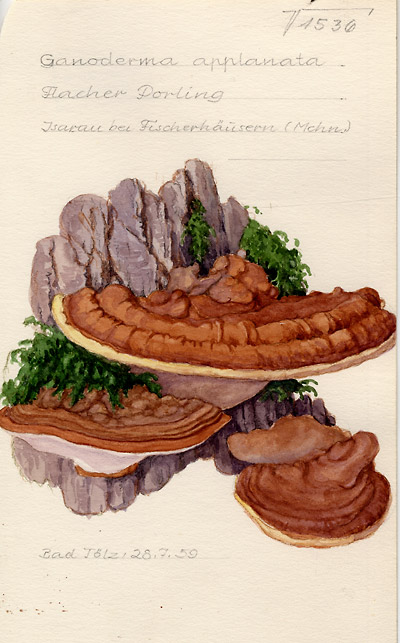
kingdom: Fungi
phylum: Basidiomycota
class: Agaricomycetes
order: Polyporales
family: Polyporaceae
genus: Ganoderma
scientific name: Ganoderma applanatum
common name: Artist's bracket
